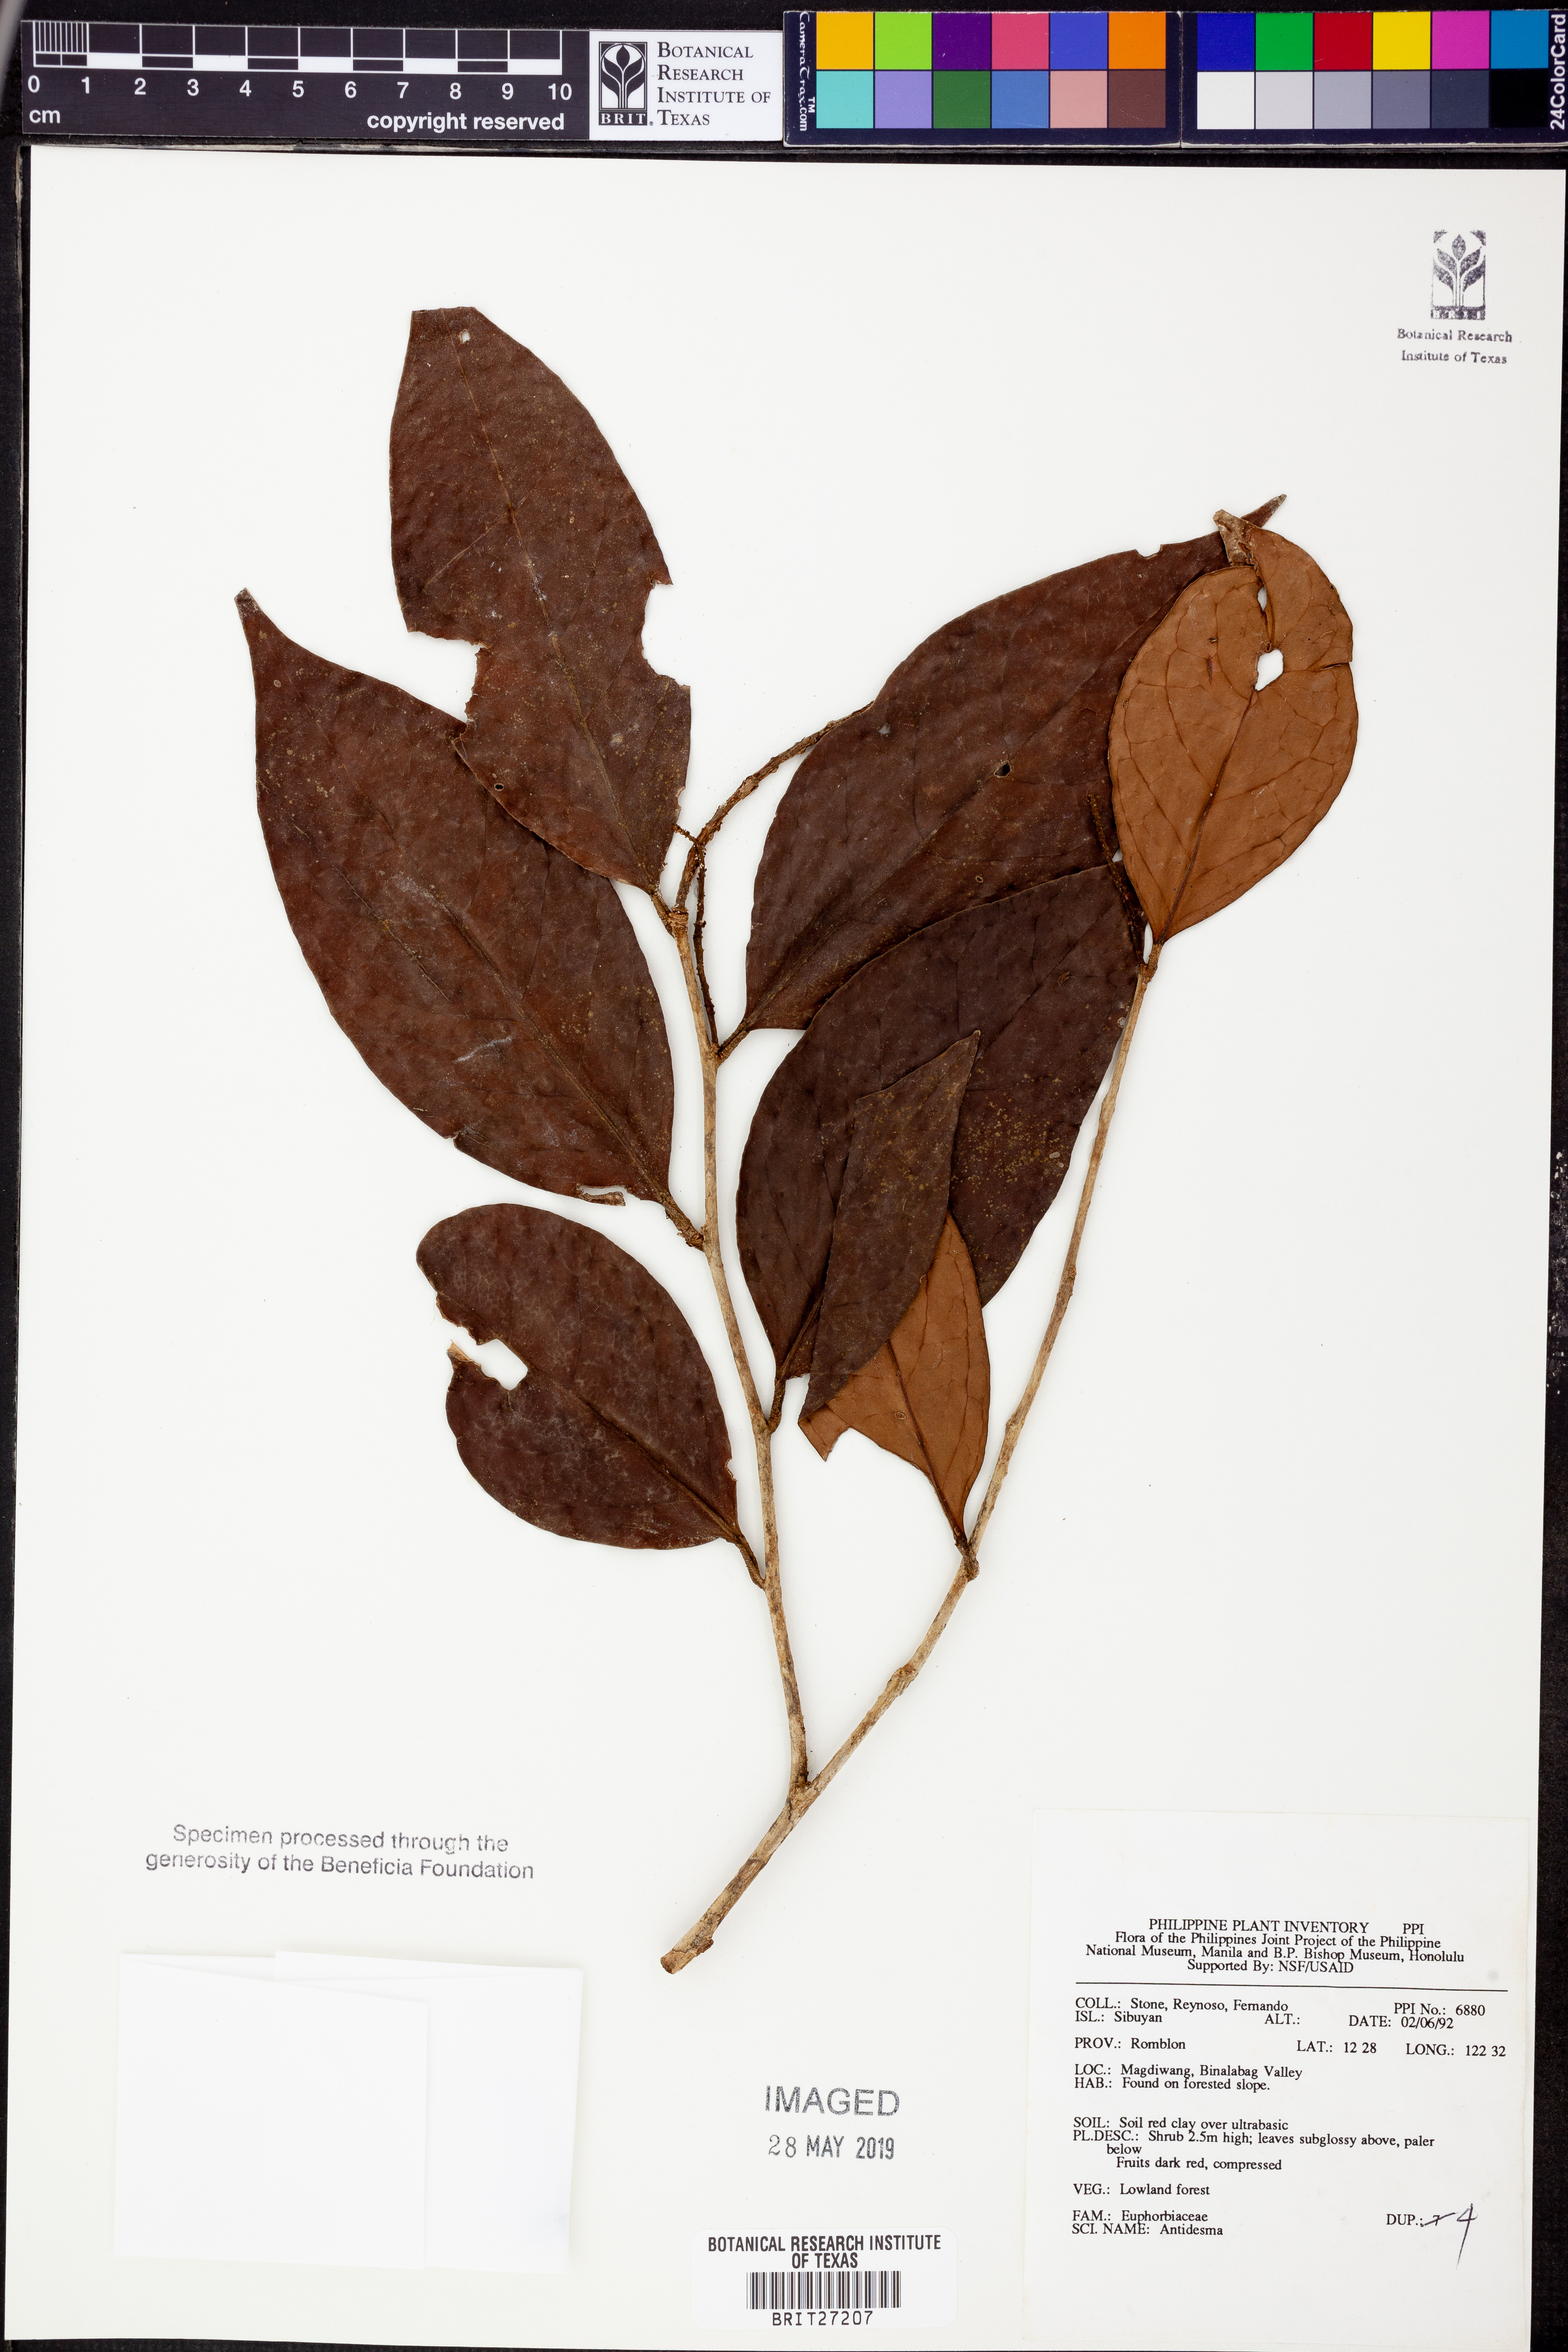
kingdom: Plantae
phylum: Tracheophyta
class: Magnoliopsida
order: Malpighiales
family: Phyllanthaceae
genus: Antidesma
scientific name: Antidesma
